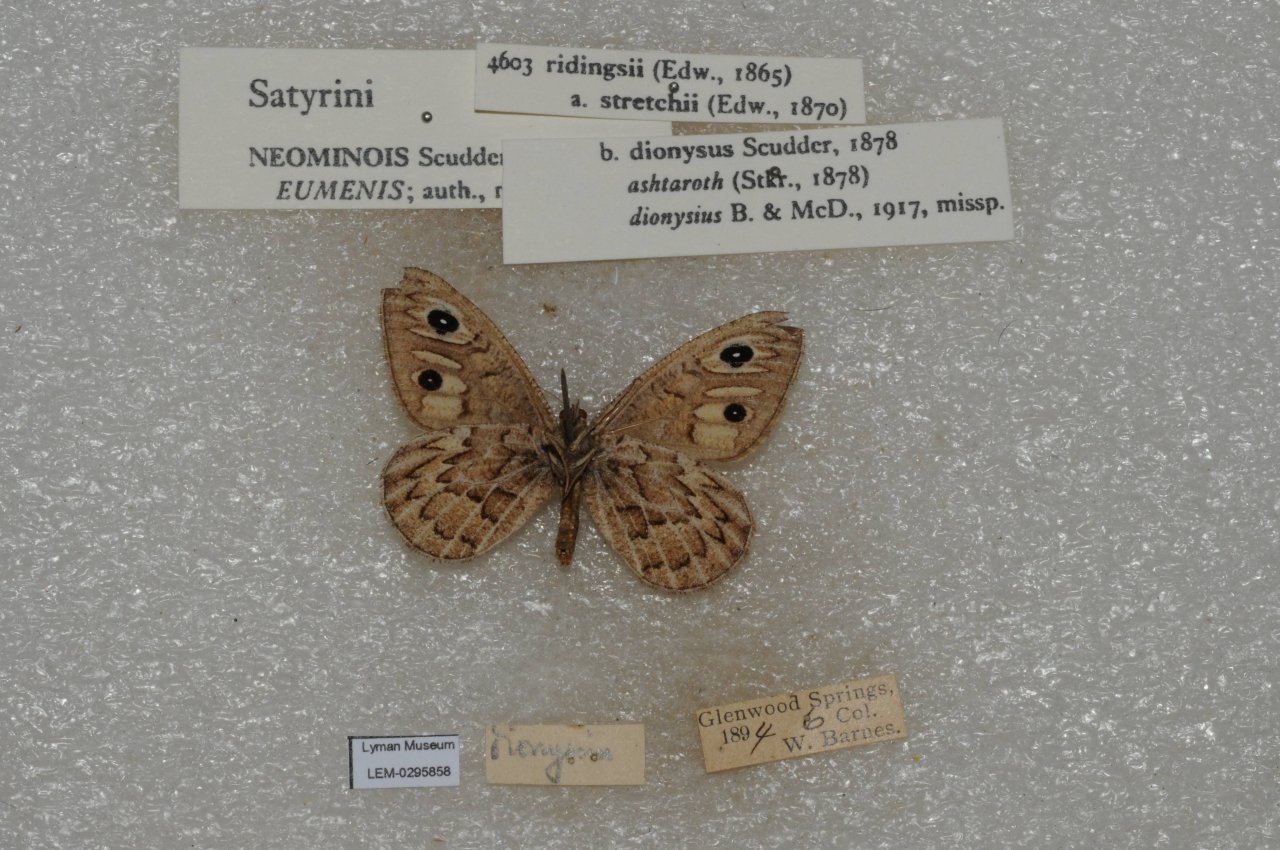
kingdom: Animalia
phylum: Arthropoda
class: Insecta
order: Lepidoptera
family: Nymphalidae
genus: Neominois
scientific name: Neominois ridingsii
